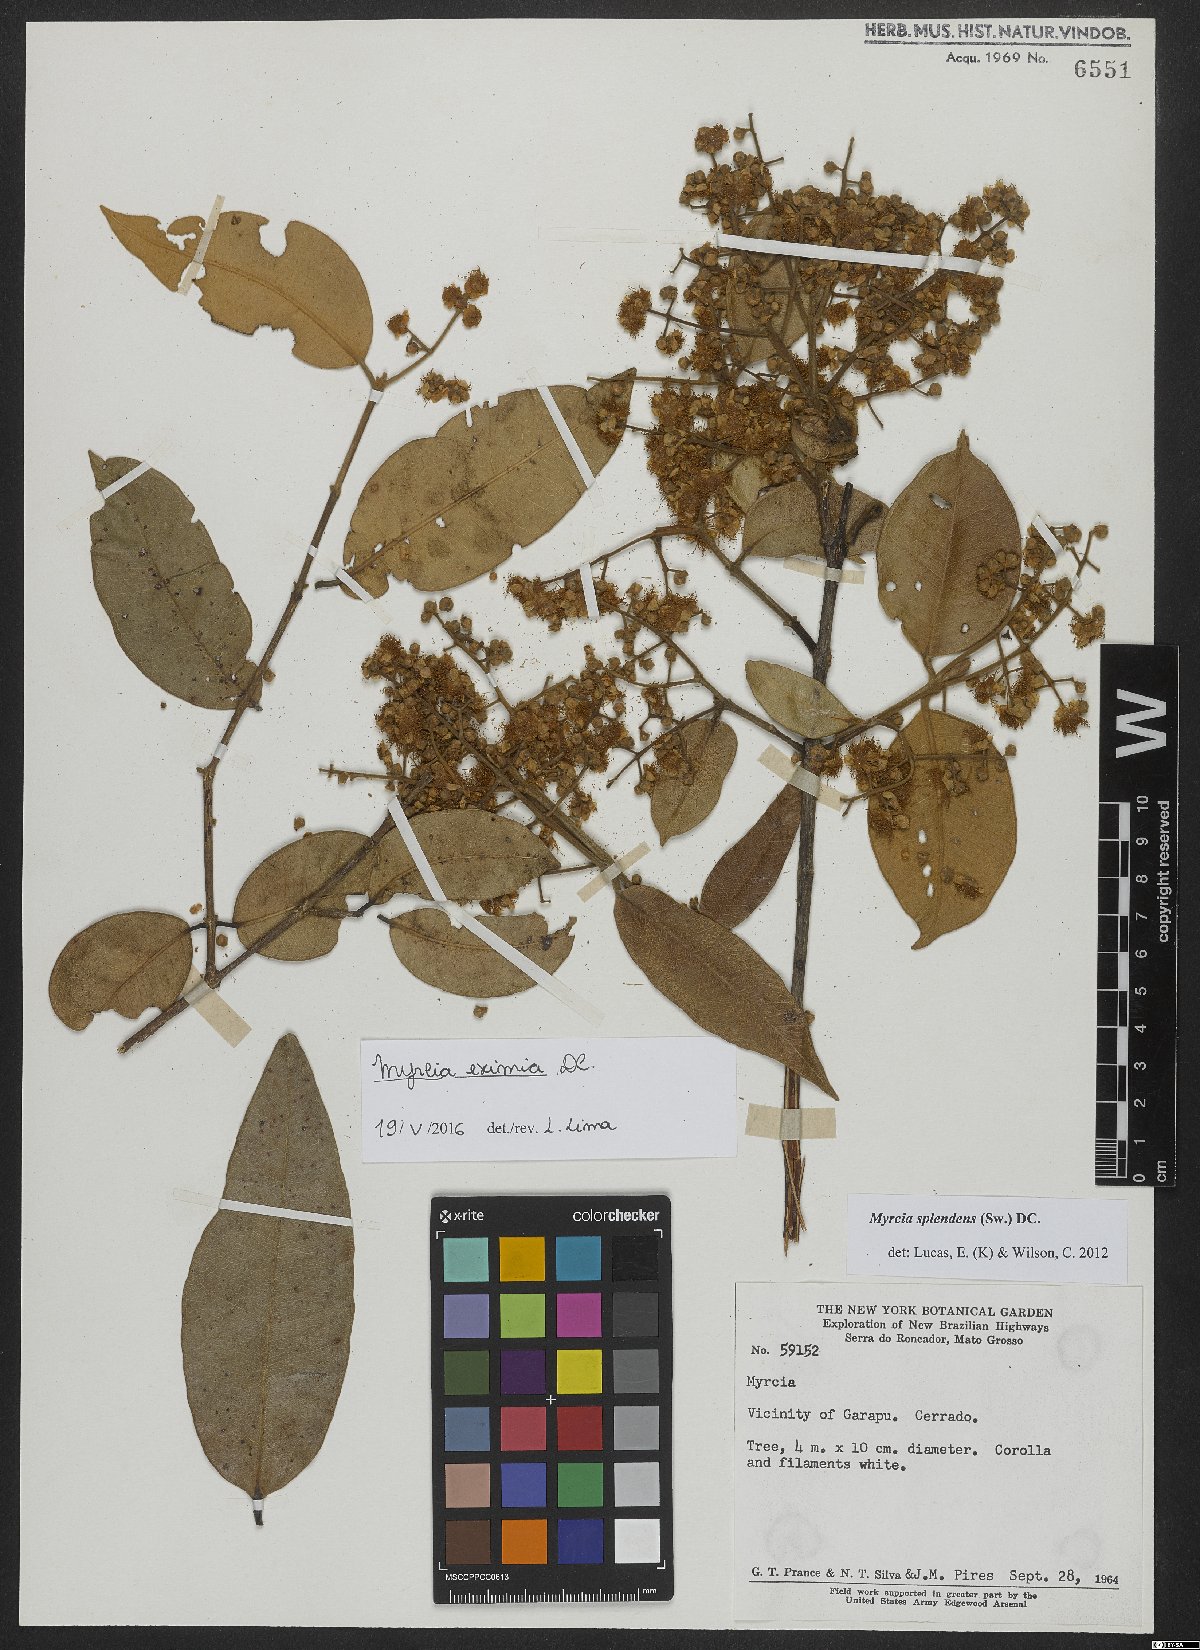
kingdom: Plantae
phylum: Tracheophyta
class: Magnoliopsida
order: Myrtales
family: Myrtaceae
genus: Myrcia
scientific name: Myrcia eximia
